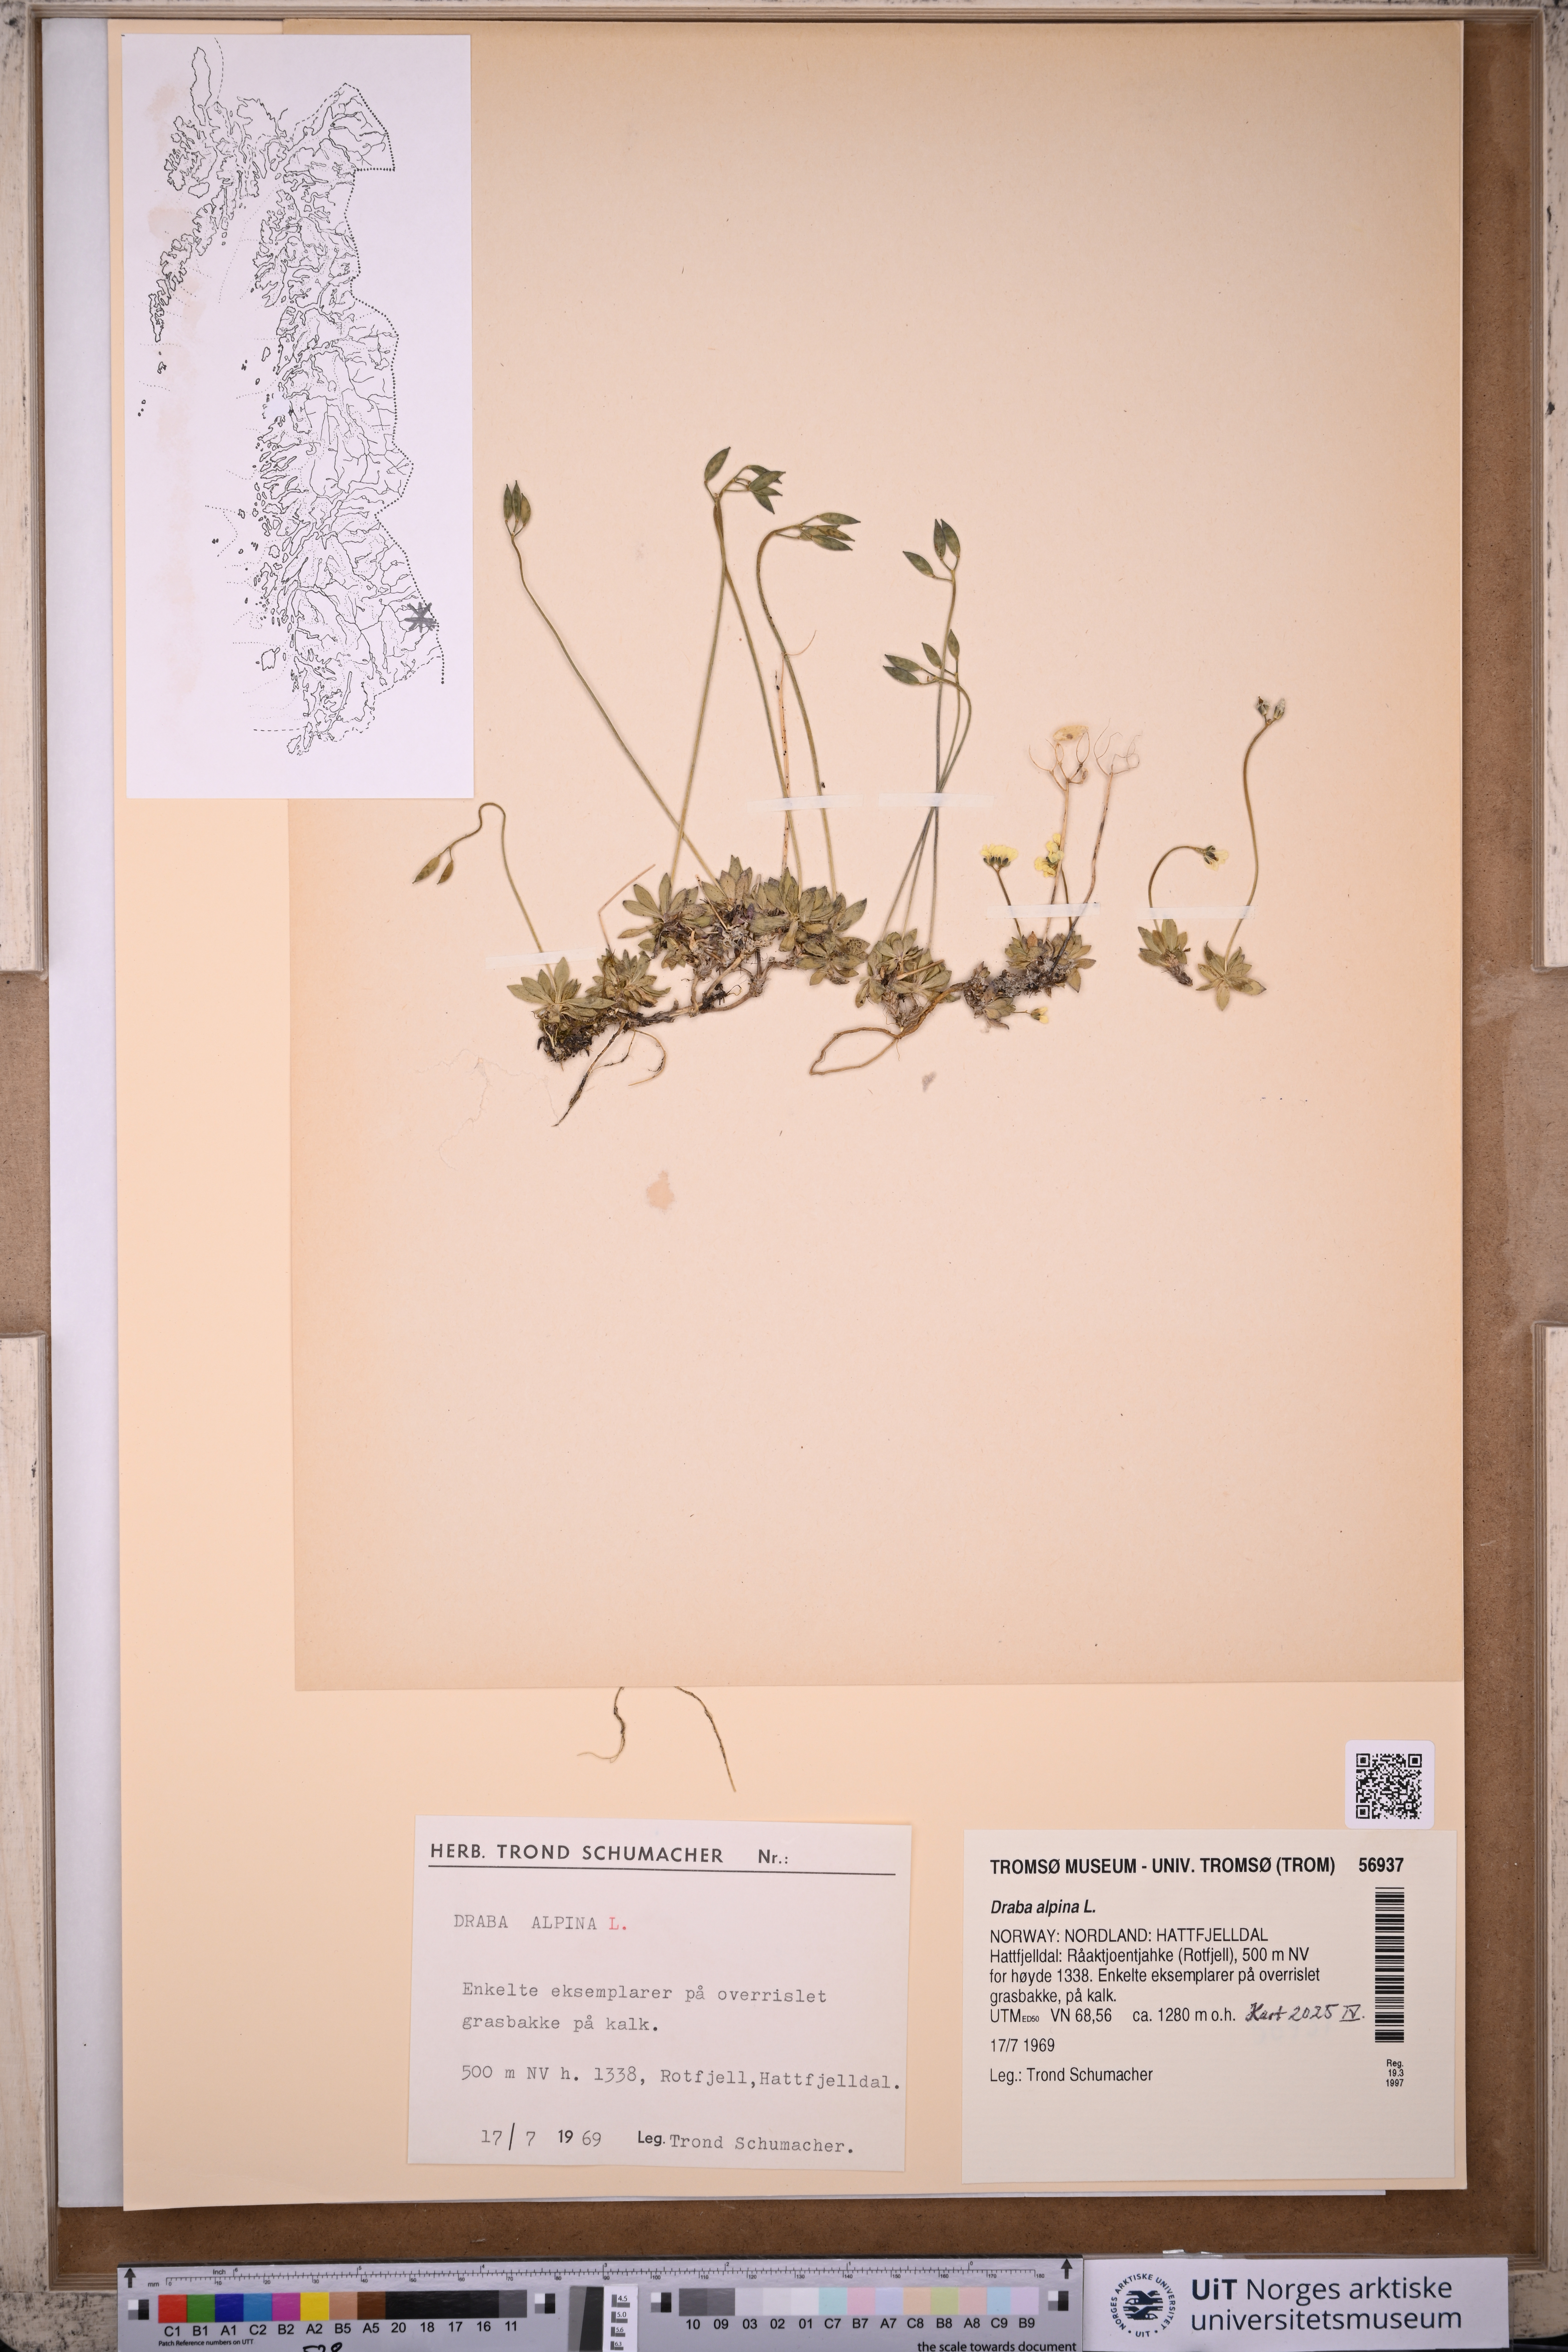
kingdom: Plantae
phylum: Tracheophyta
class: Magnoliopsida
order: Brassicales
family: Brassicaceae
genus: Draba
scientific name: Draba alpina
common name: Alpine draba
